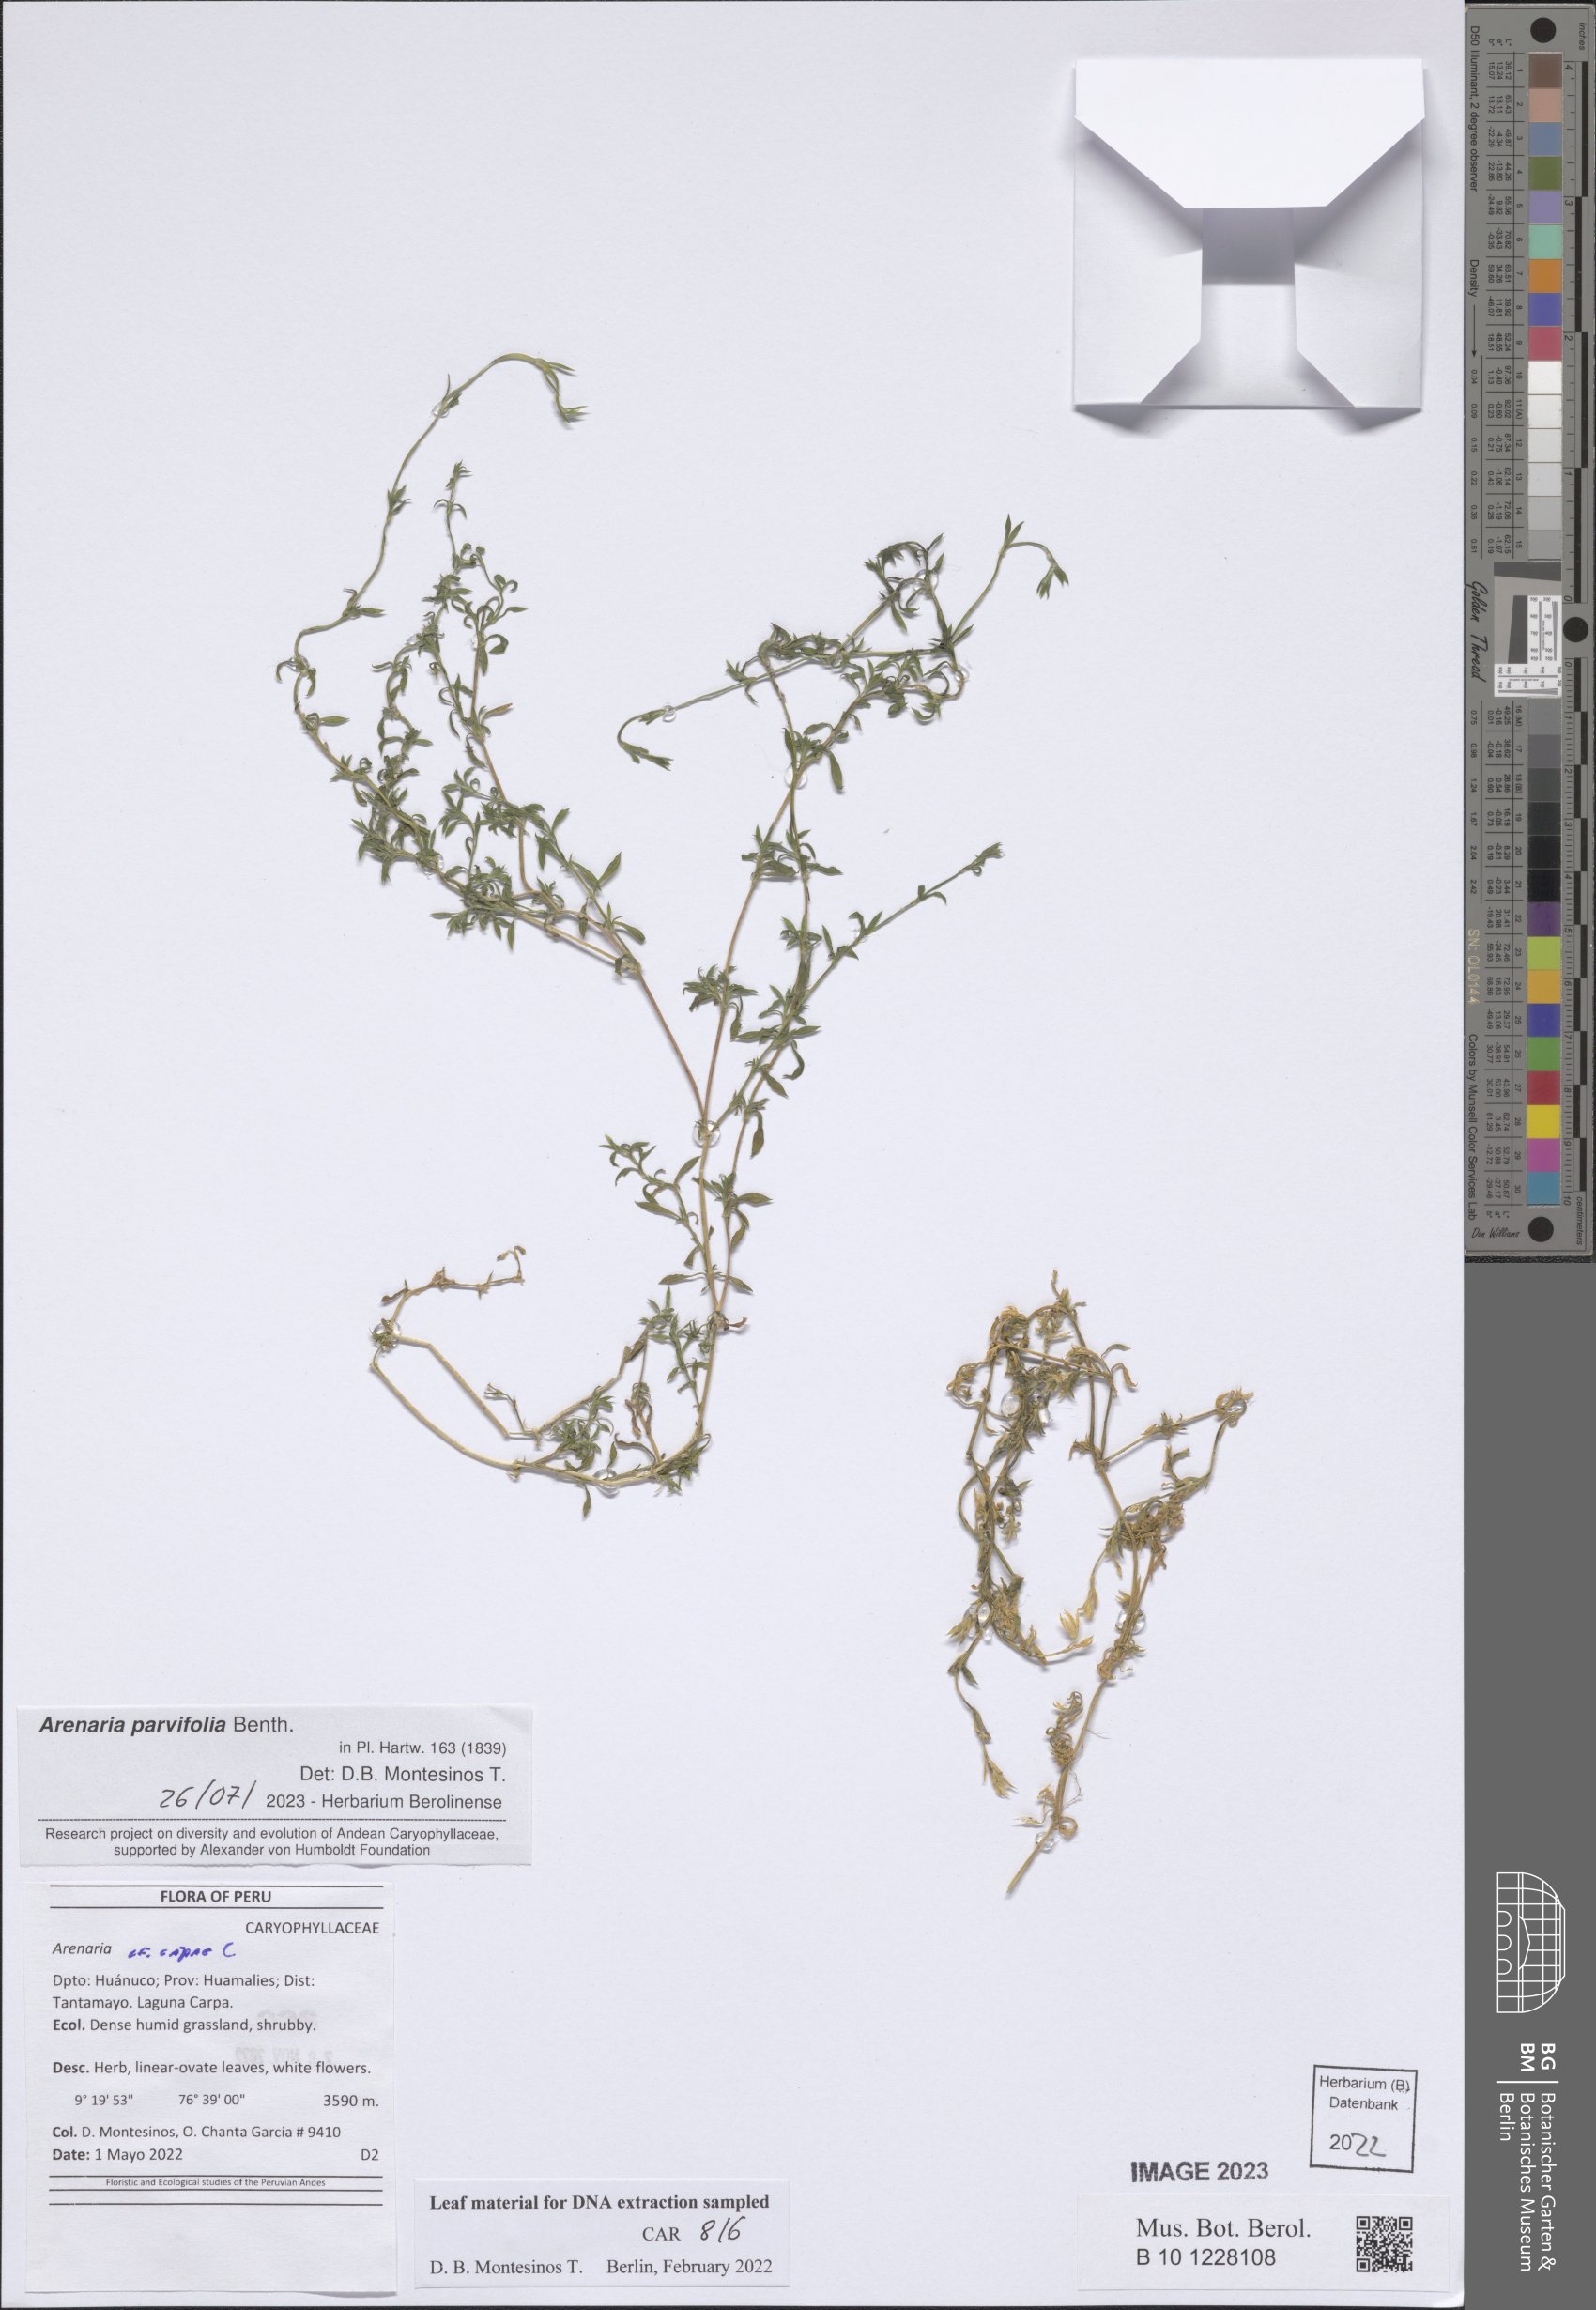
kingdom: Plantae
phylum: Tracheophyta
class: Magnoliopsida
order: Caryophyllales
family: Caryophyllaceae
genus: Arenaria
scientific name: Arenaria
